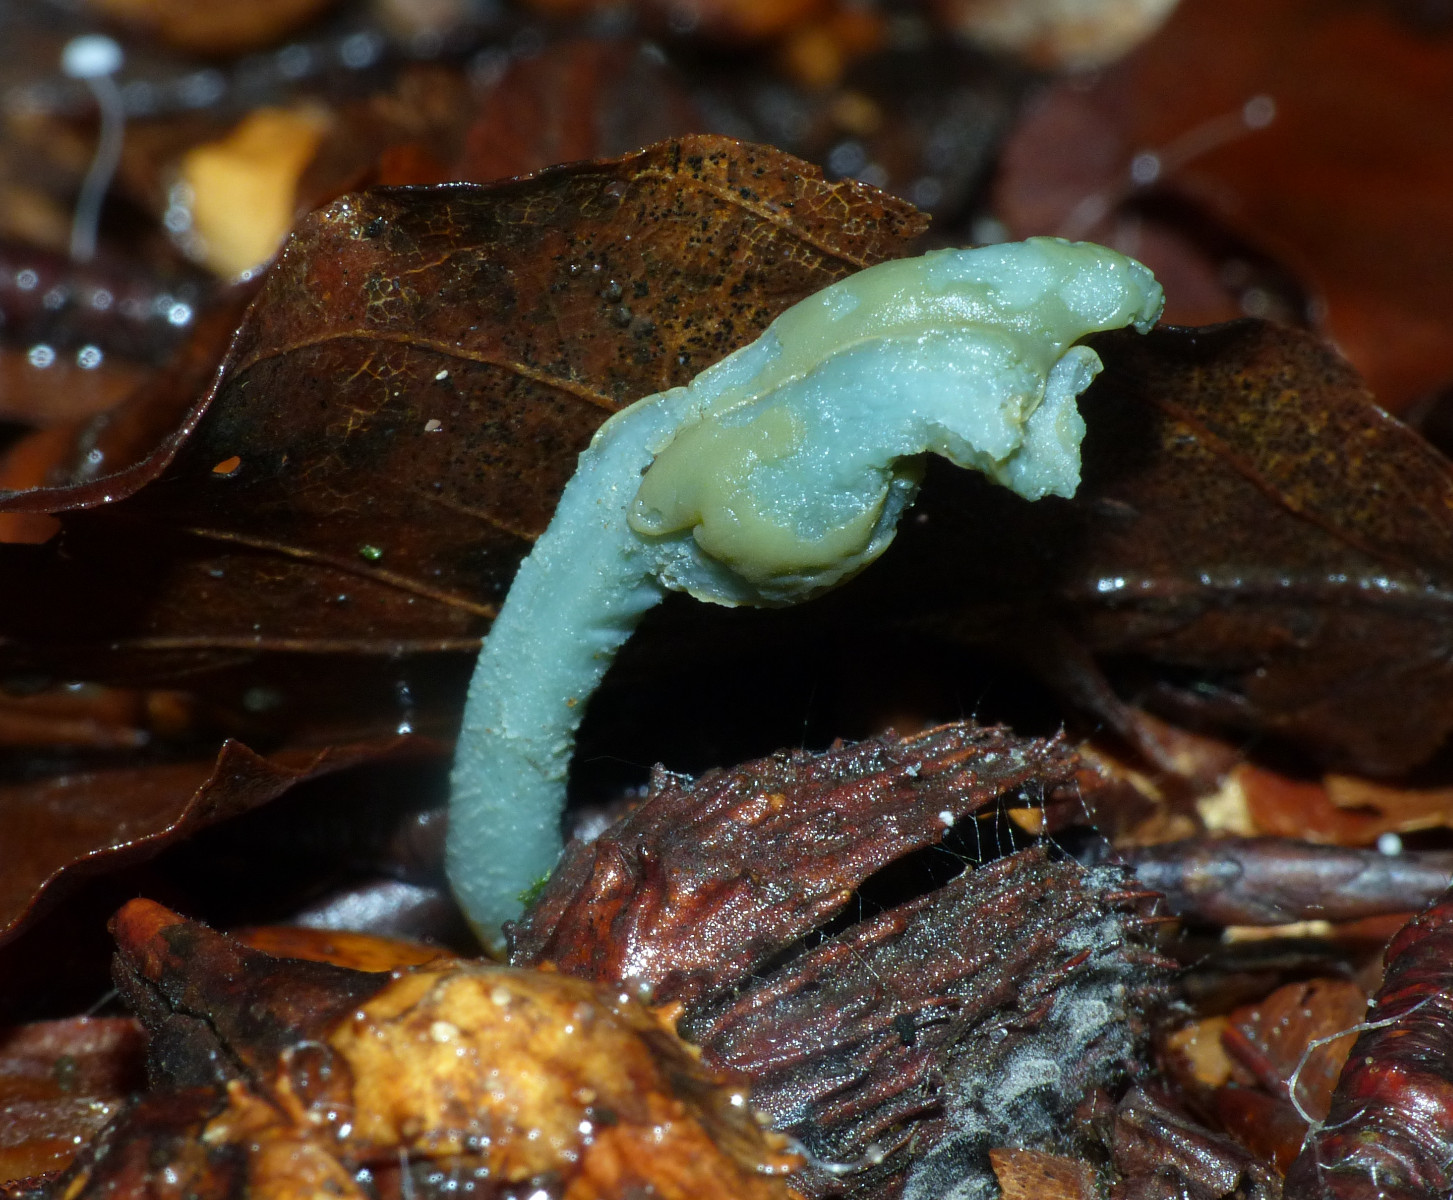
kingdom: Fungi
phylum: Ascomycota
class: Leotiomycetes
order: Leotiales
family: Leotiaceae
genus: Microglossum
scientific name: Microglossum griseoviride
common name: grågrøn farvetunge
